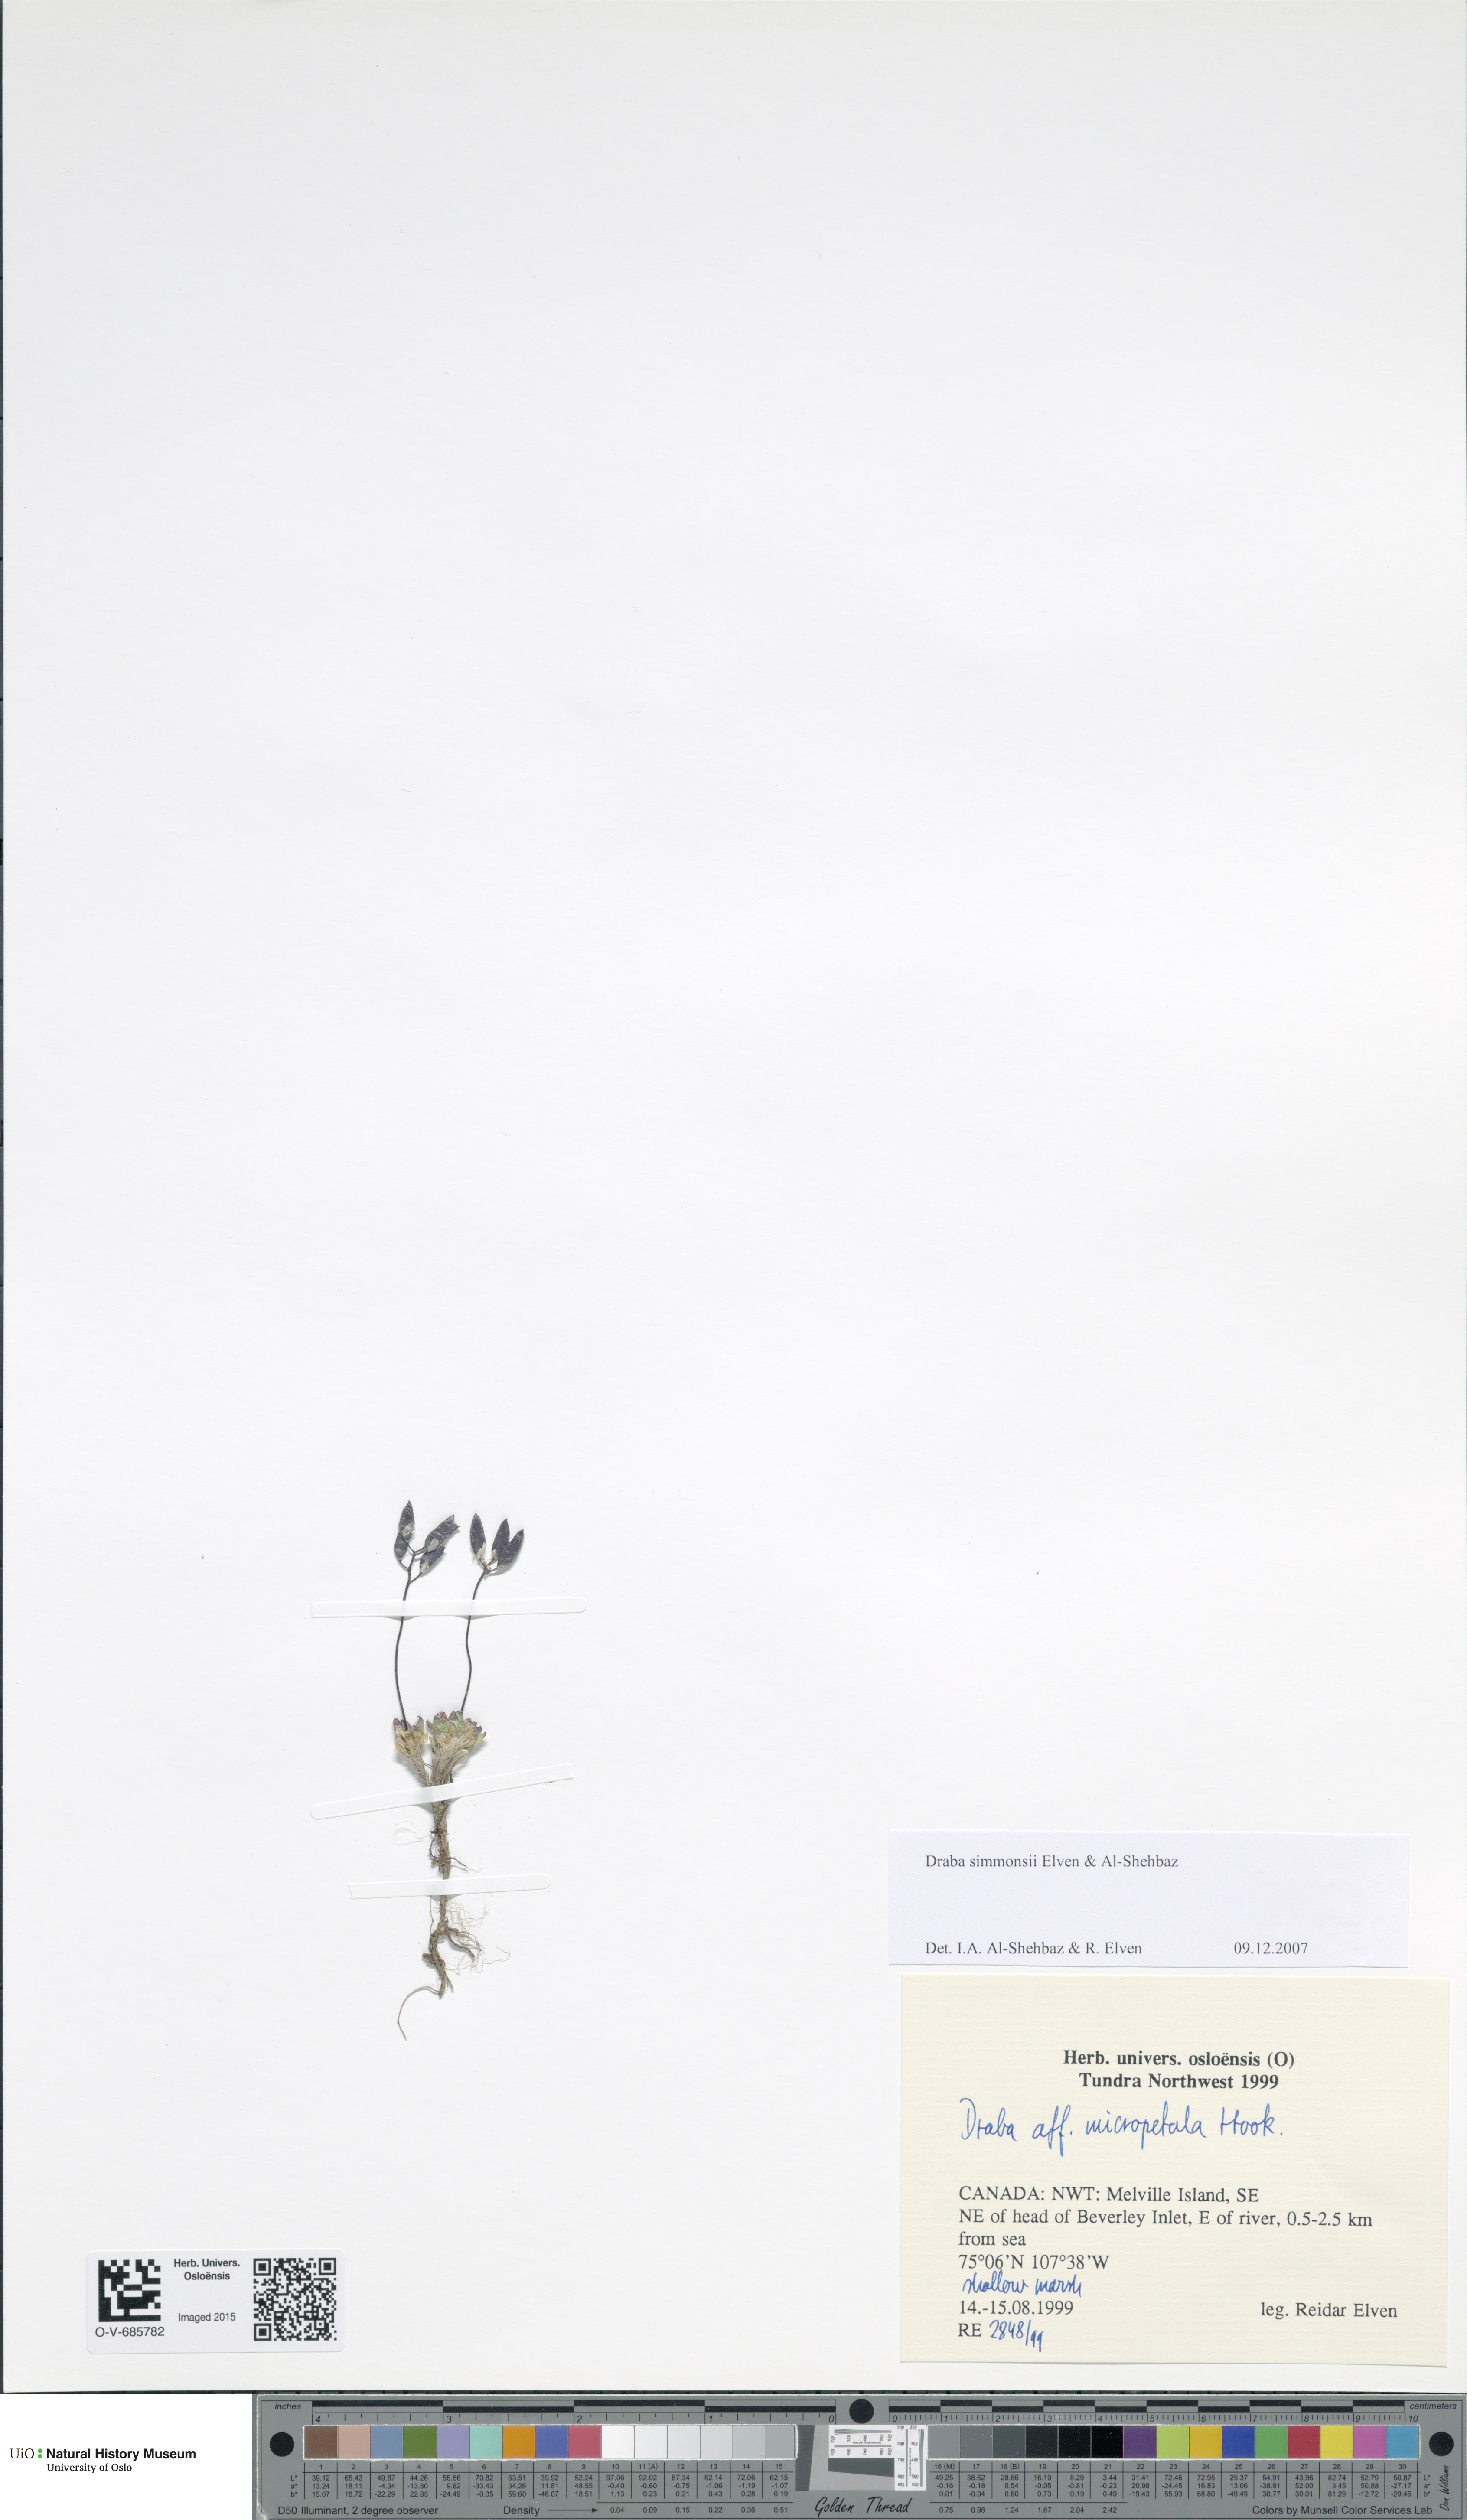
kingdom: Plantae
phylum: Tracheophyta
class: Magnoliopsida
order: Brassicales
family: Brassicaceae
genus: Draba
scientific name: Draba simmonsii
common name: Simmonds' whitlow-grass
